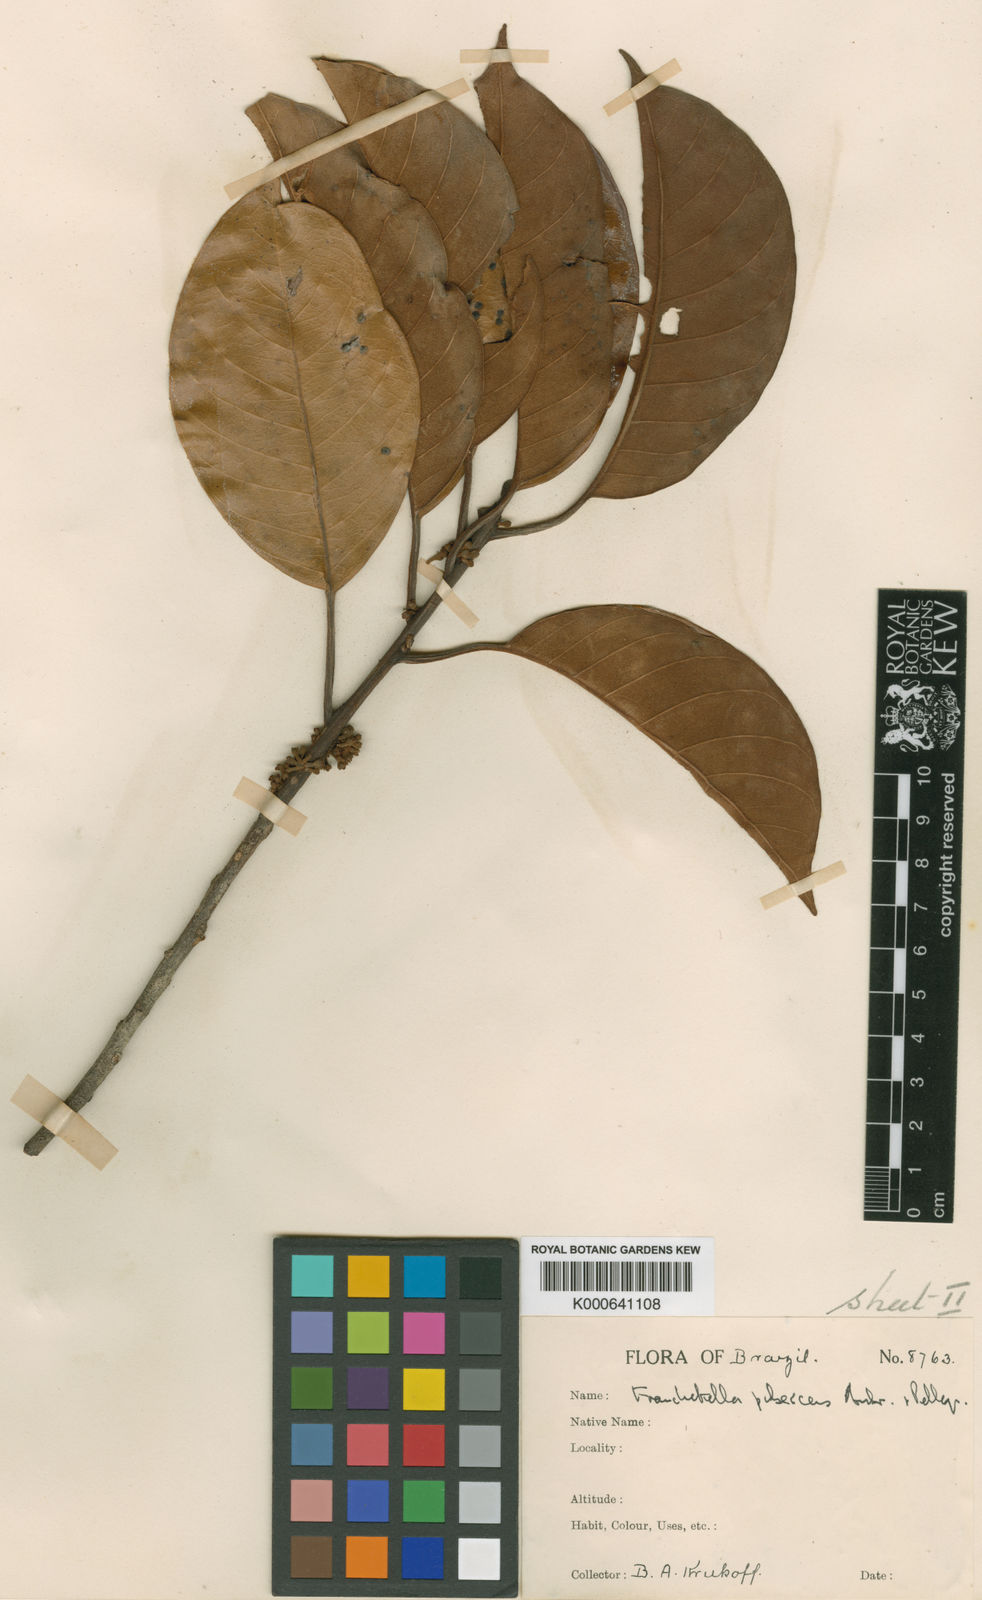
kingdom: Plantae
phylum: Tracheophyta
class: Magnoliopsida
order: Ericales
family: Sapotaceae
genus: Pouteria
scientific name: Pouteria
